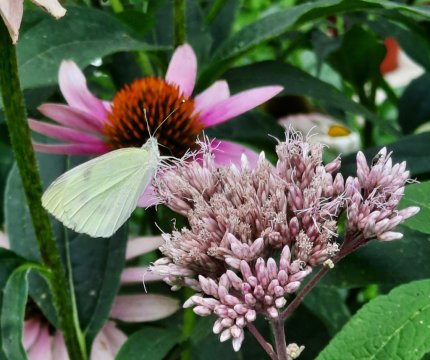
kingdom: Animalia
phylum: Arthropoda
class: Insecta
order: Lepidoptera
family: Pieridae
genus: Pieris
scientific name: Pieris rapae
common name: Cabbage White
